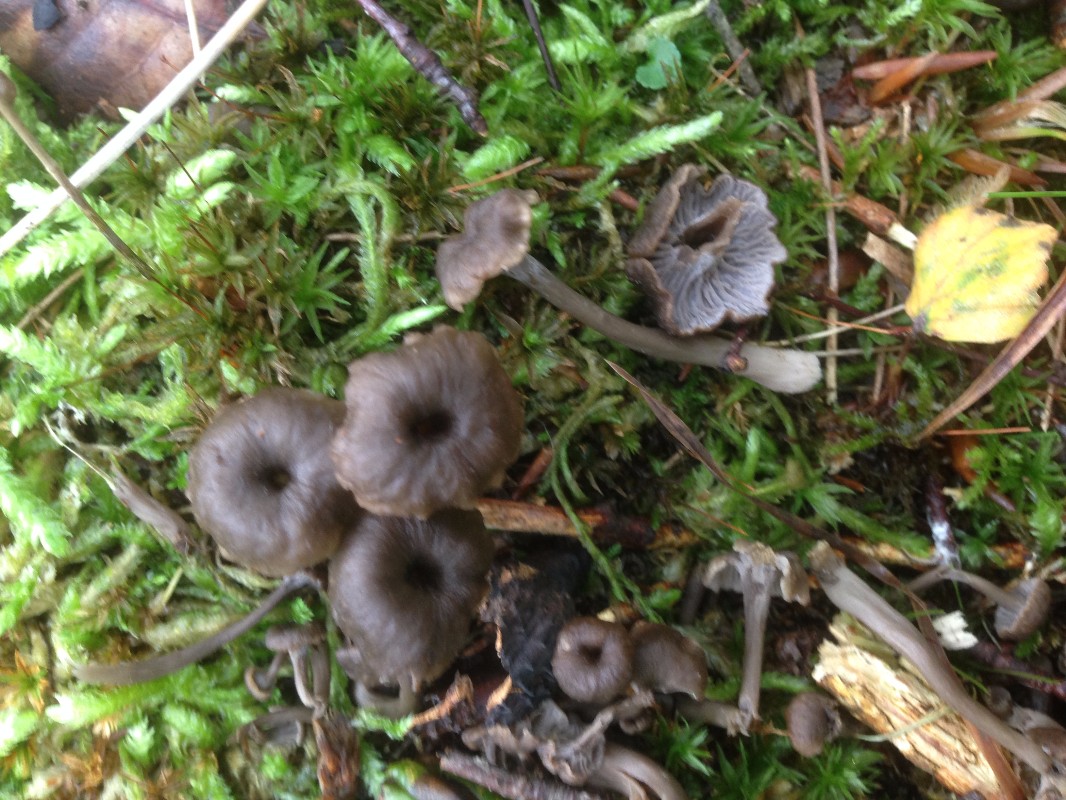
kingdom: Fungi
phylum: Basidiomycota
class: Agaricomycetes
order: Cantharellales
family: Hydnaceae
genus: Cantharellus
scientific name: Cantharellus cinereus
